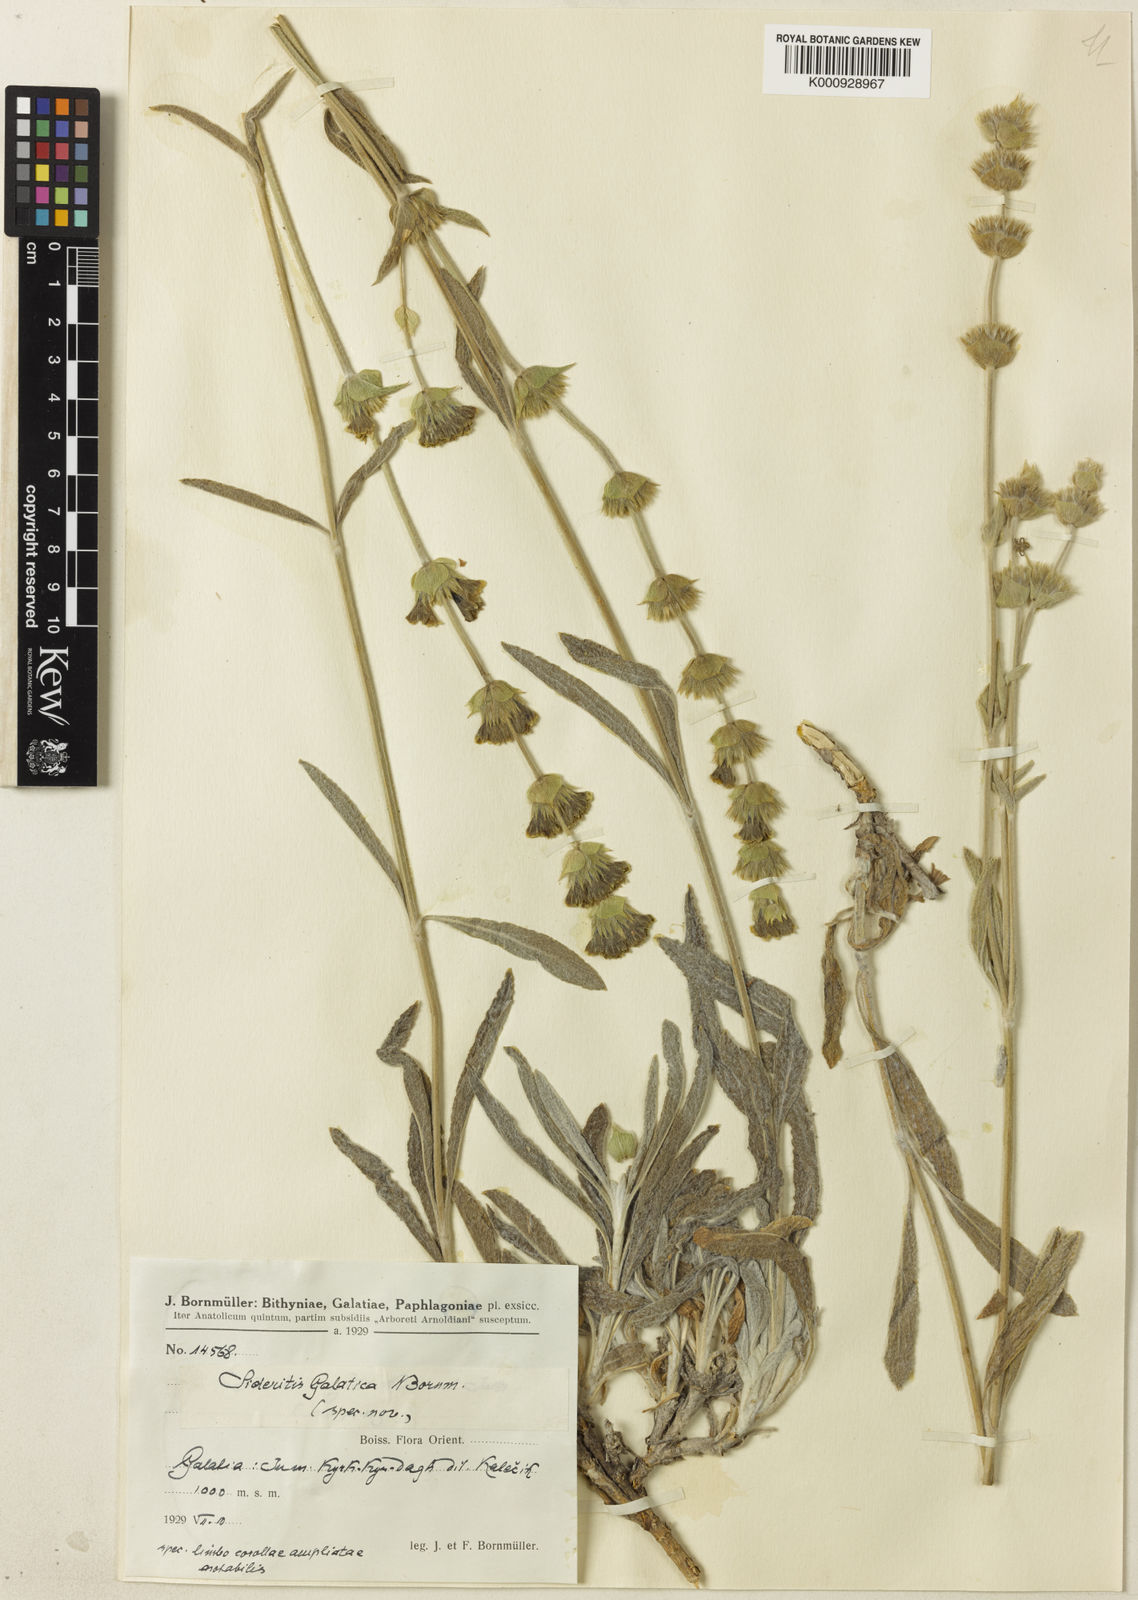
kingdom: Plantae
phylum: Tracheophyta
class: Magnoliopsida
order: Lamiales
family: Lamiaceae
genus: Sideritis
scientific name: Sideritis pisidica
